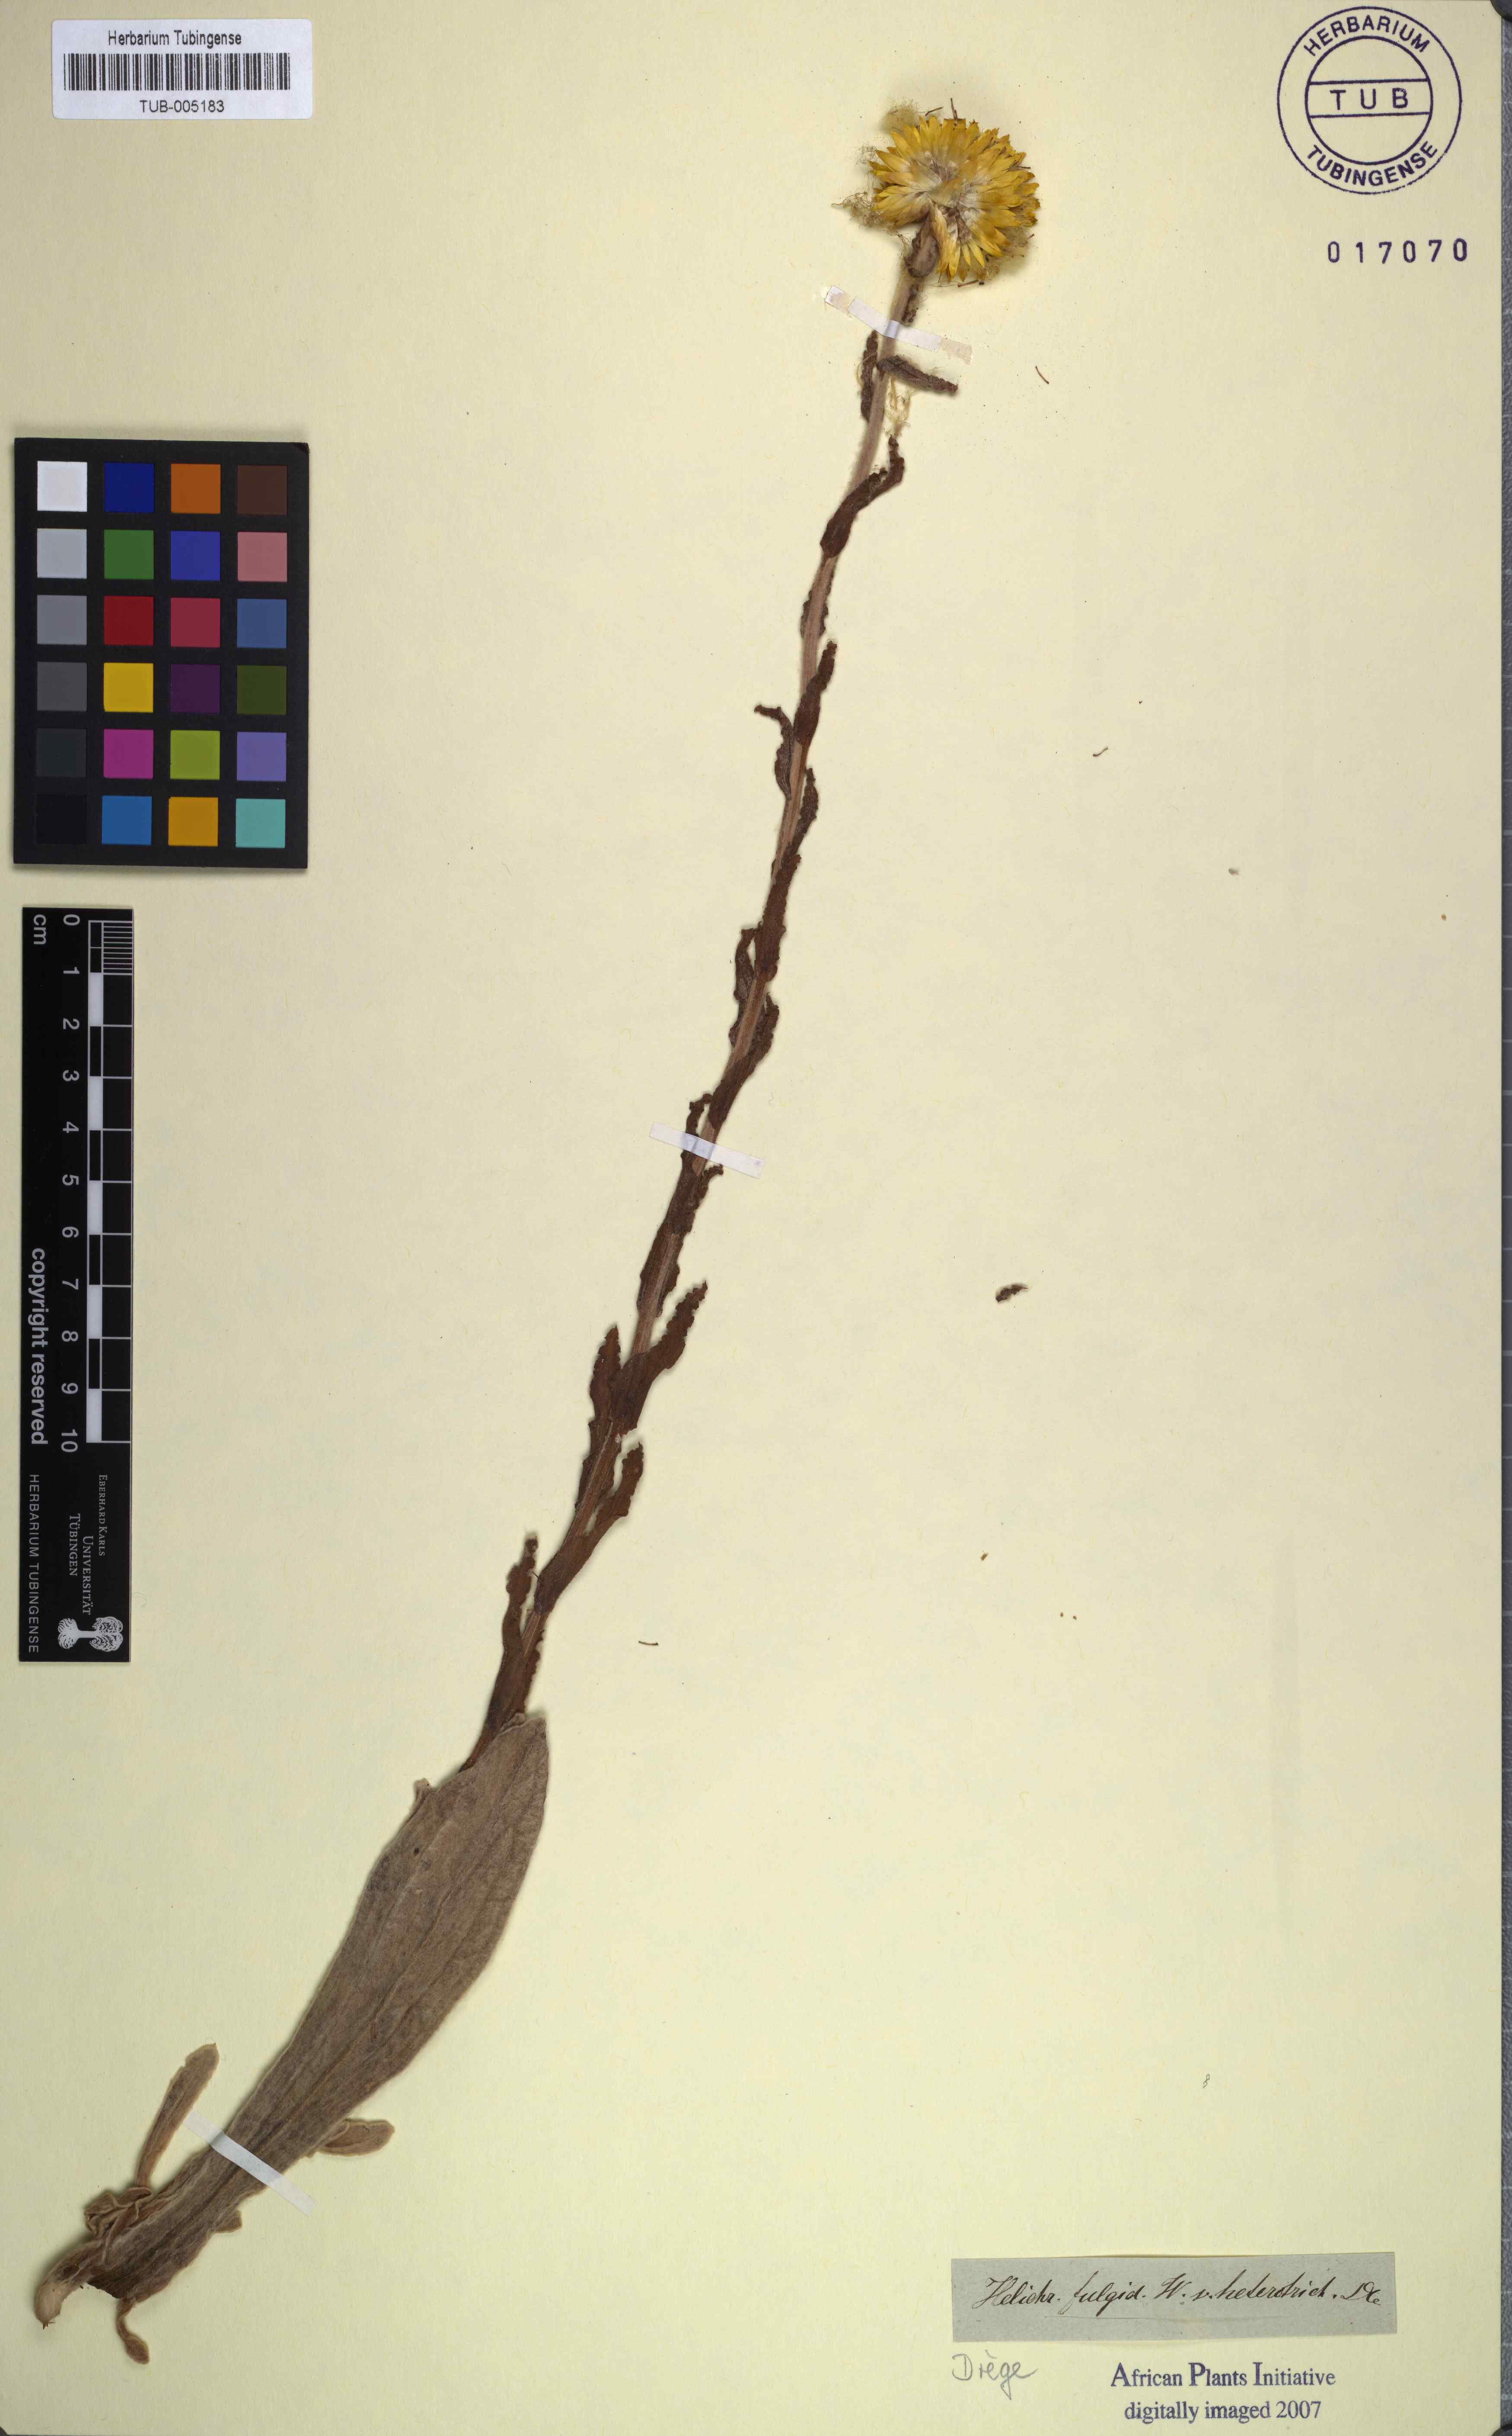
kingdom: Plantae
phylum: Tracheophyta
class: Magnoliopsida
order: Asterales
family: Asteraceae
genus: Helichrysum
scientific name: Helichrysum aureum
